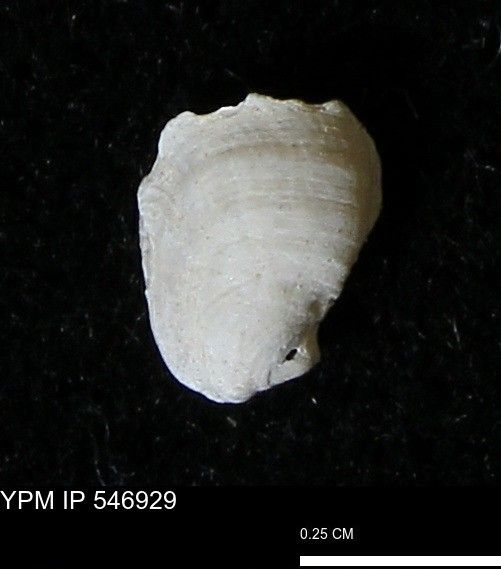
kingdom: Animalia
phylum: Mollusca
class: Bivalvia
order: Pectinida
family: Anomiidae
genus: Heteranomia
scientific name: Heteranomia squamula
